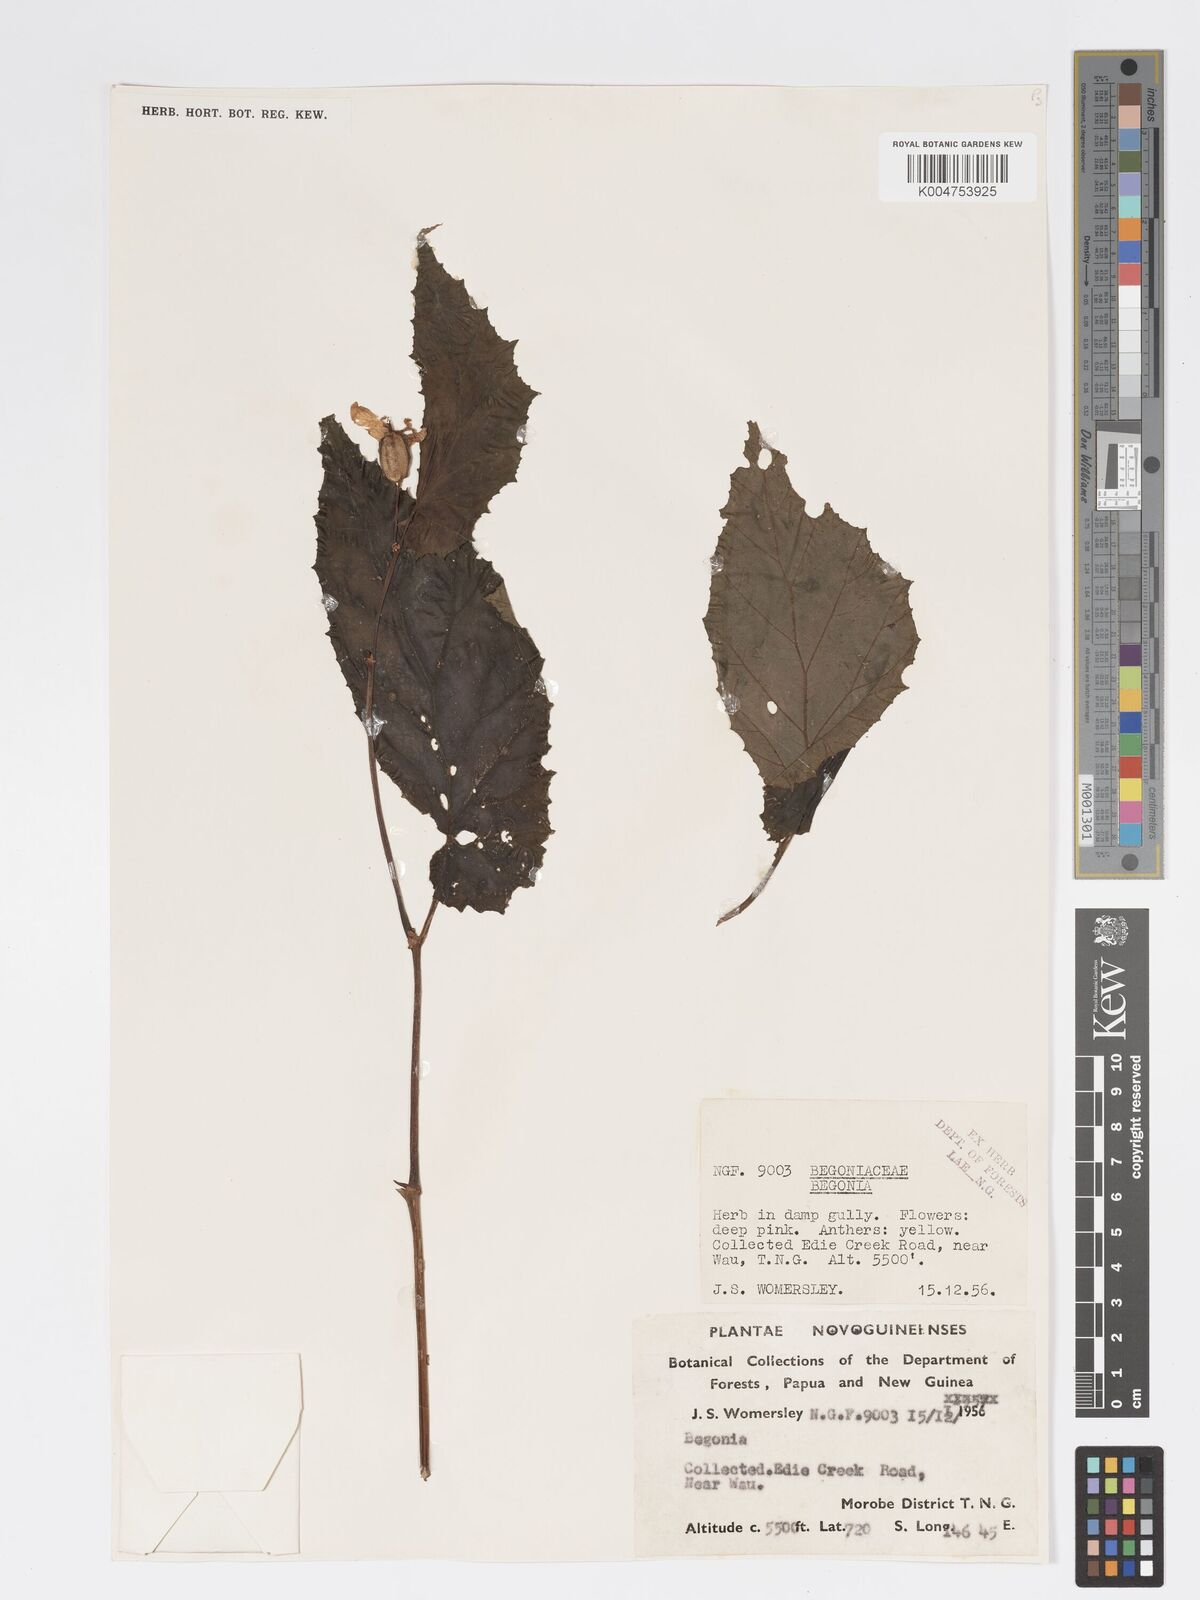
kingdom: Plantae
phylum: Tracheophyta
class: Magnoliopsida
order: Cucurbitales
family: Begoniaceae
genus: Begonia
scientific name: Begonia wollastonii
